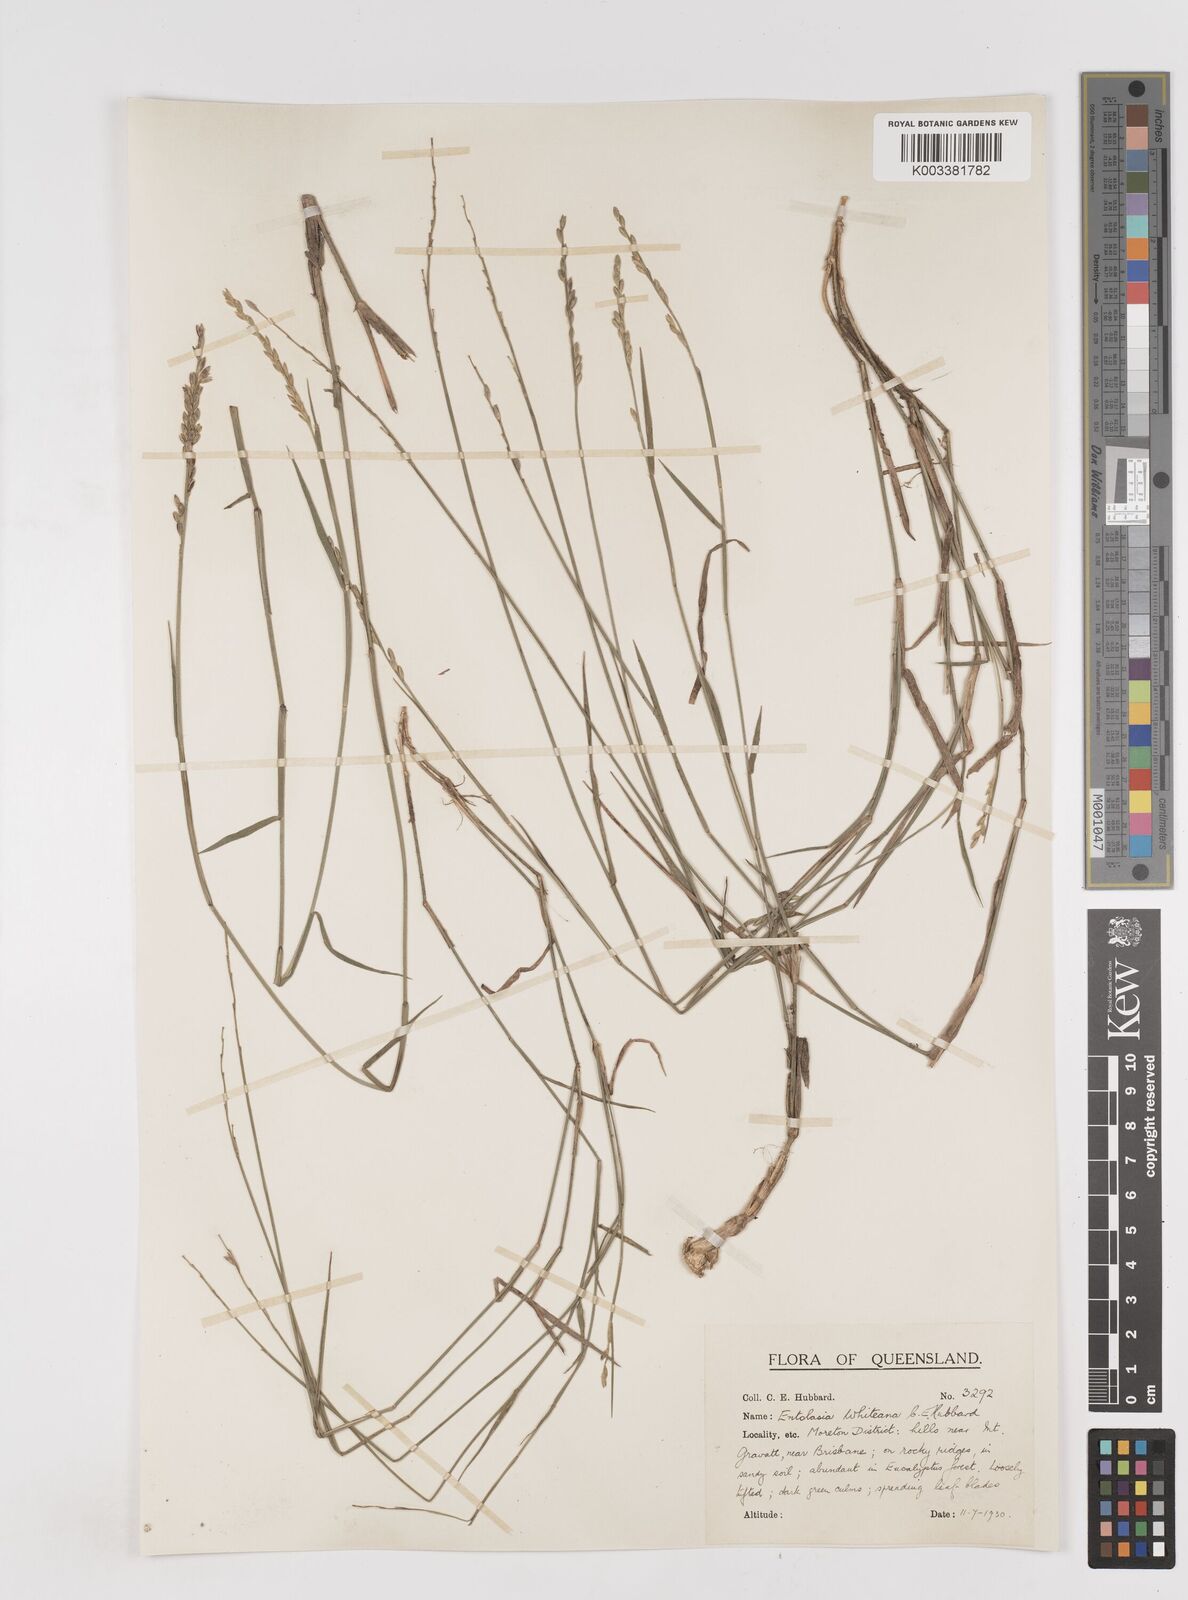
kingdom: Plantae
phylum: Tracheophyta
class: Liliopsida
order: Poales
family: Poaceae
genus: Entolasia
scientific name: Entolasia whiteana
